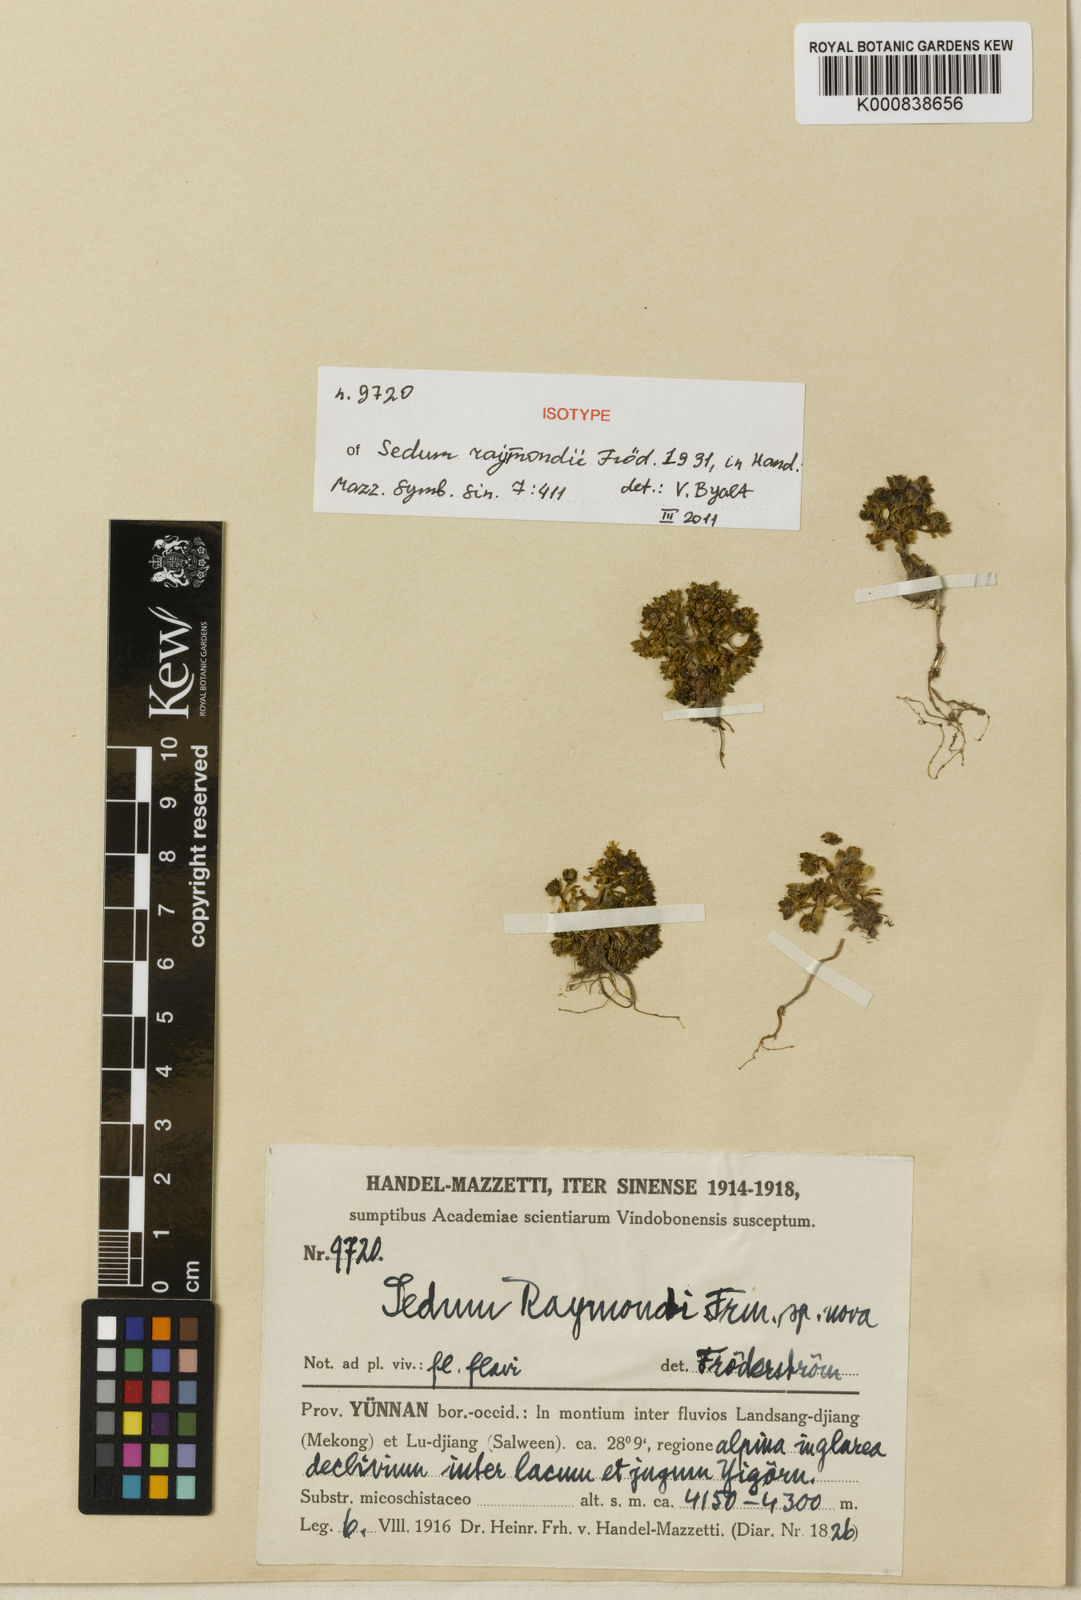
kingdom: Plantae
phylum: Tracheophyta
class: Magnoliopsida
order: Saxifragales
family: Crassulaceae
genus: Sedum
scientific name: Sedum
